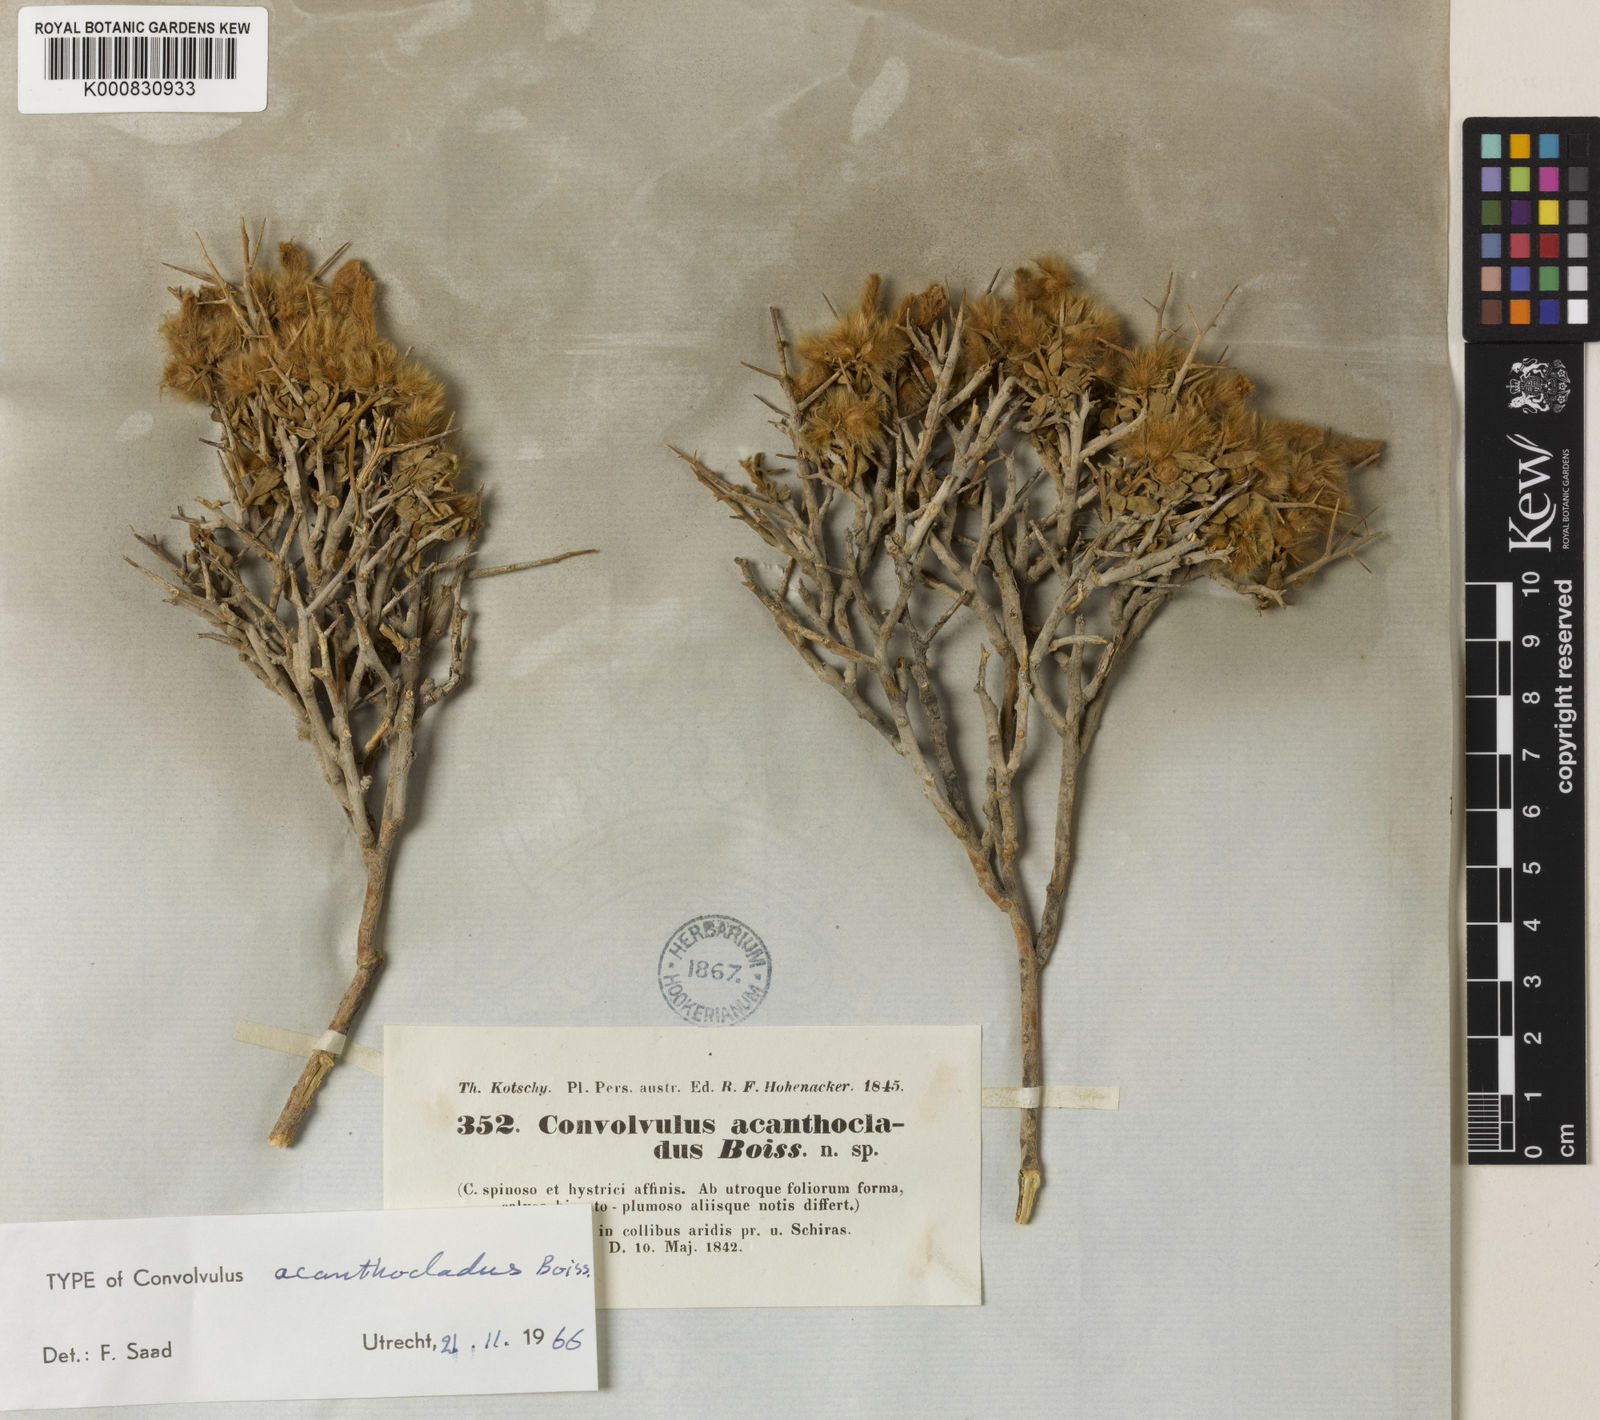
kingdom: Plantae
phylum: Tracheophyta
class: Magnoliopsida
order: Solanales
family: Convolvulaceae
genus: Convolvulus
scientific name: Convolvulus acanthocladus
